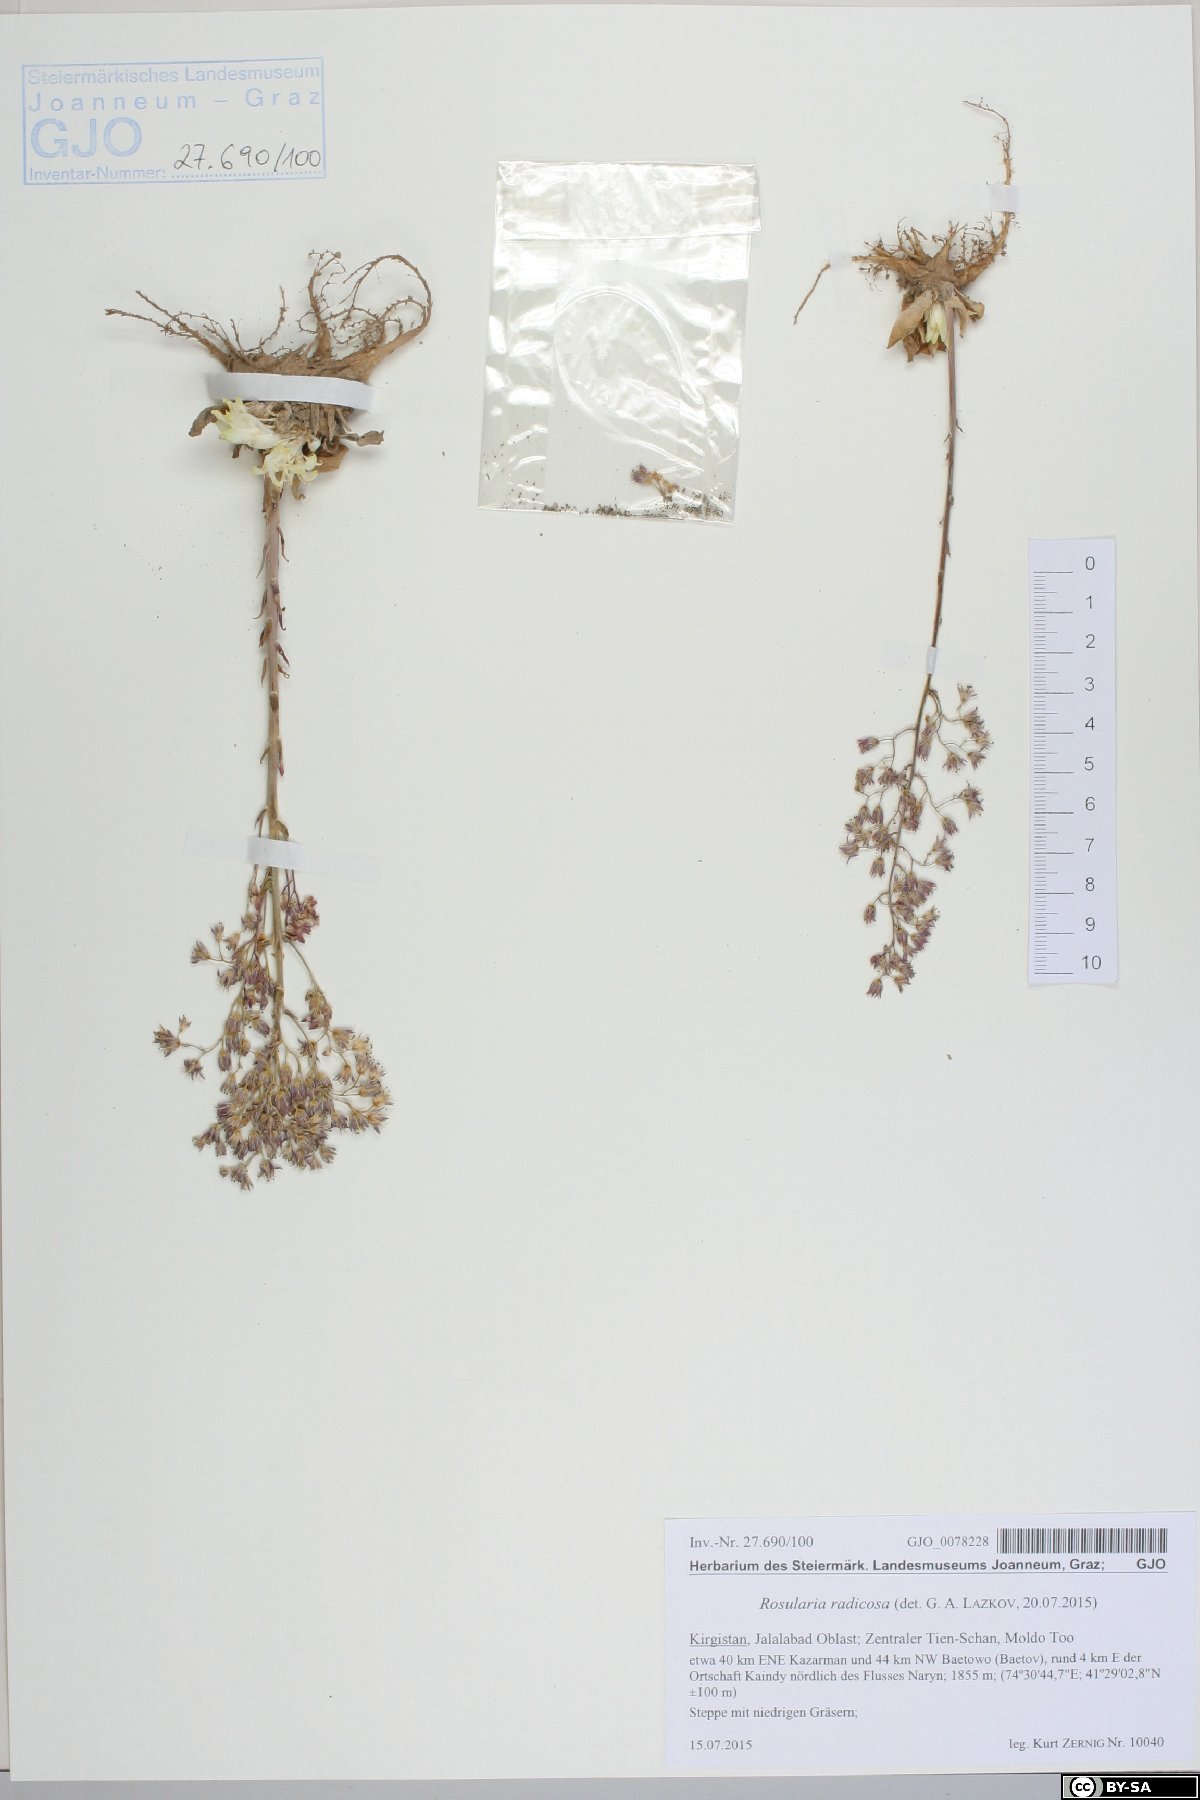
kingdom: Plantae
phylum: Tracheophyta
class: Magnoliopsida
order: Saxifragales
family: Crassulaceae
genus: Rosularia
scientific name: Rosularia radicosa
